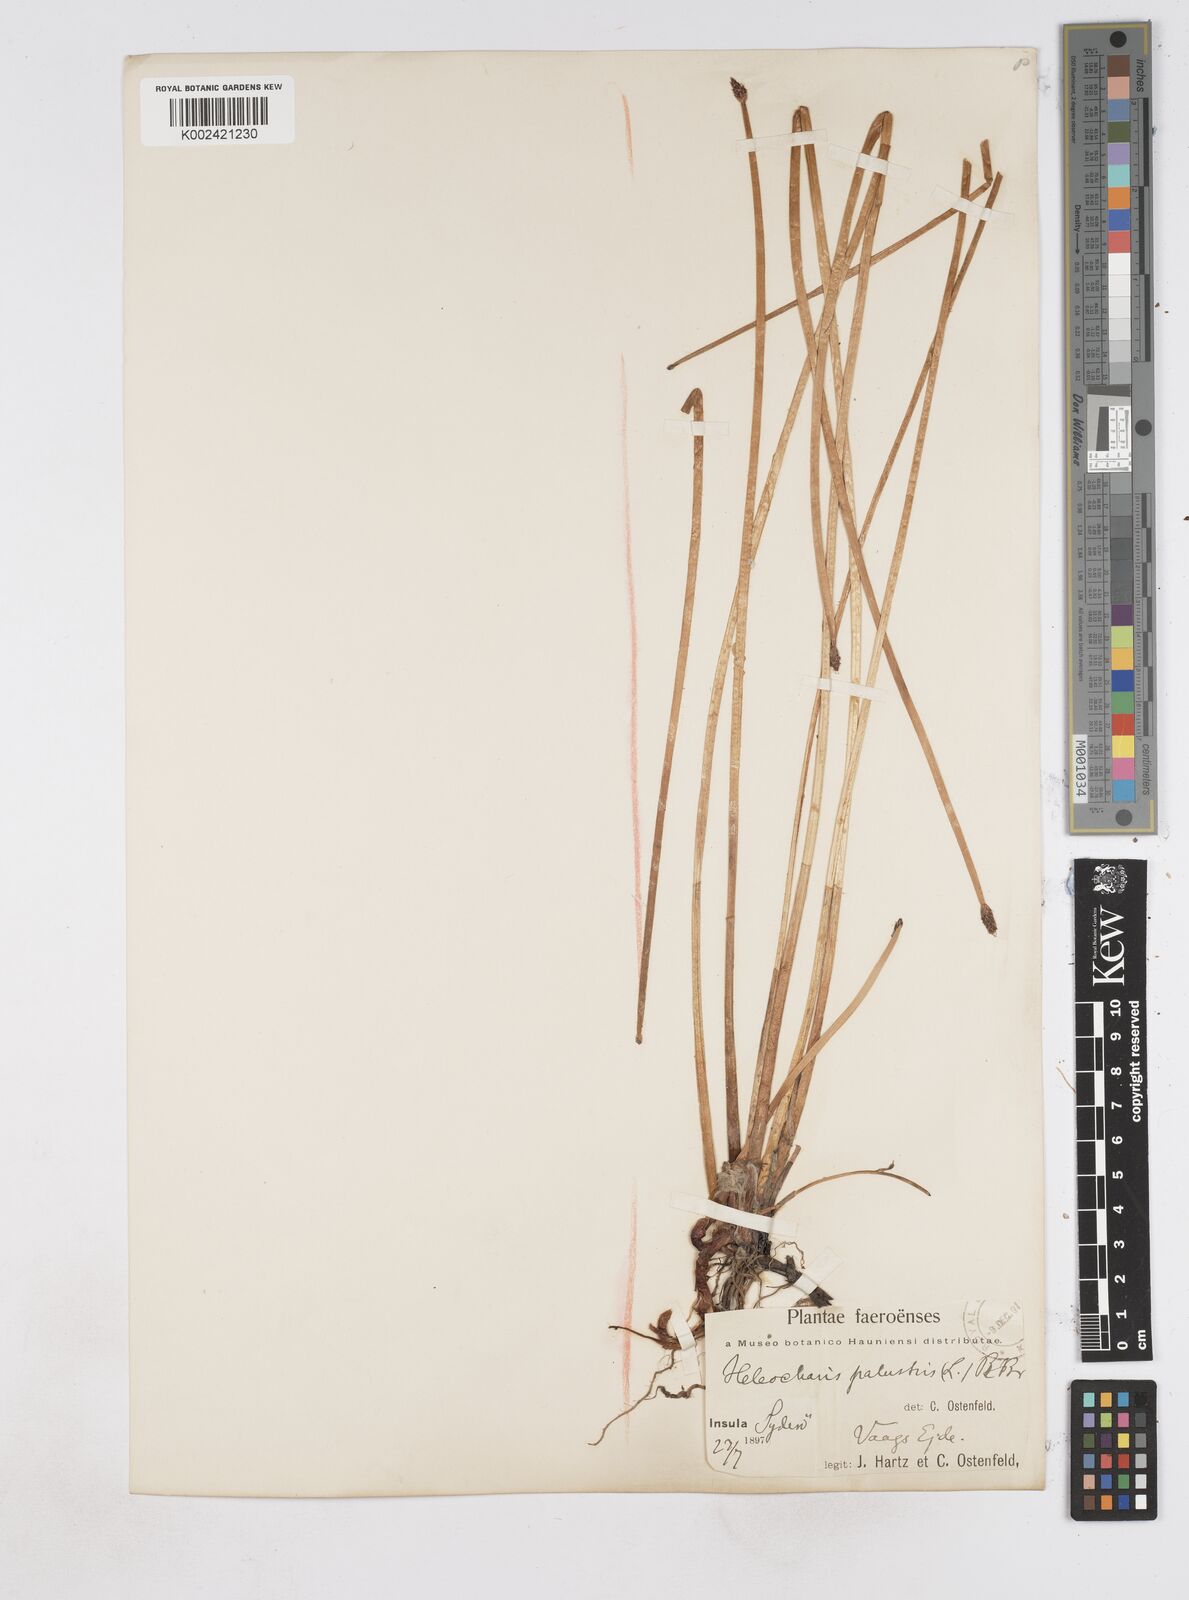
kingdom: Plantae
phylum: Tracheophyta
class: Liliopsida
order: Poales
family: Cyperaceae
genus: Eleocharis
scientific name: Eleocharis palustris
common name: Common spike-rush
